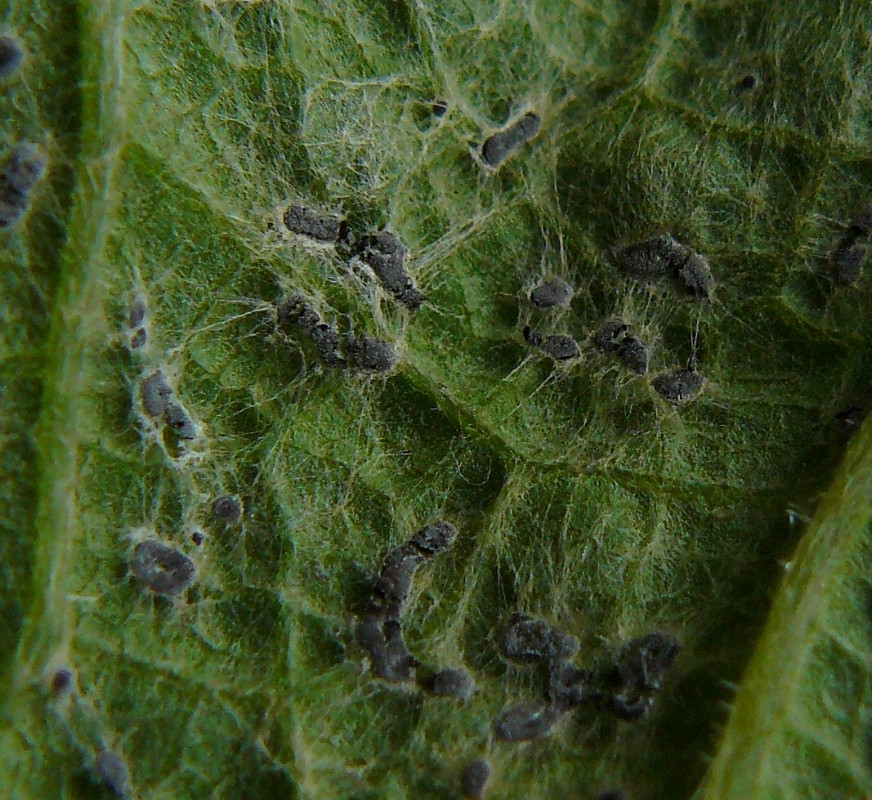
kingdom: Protozoa
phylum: Mycetozoa
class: Myxomycetes
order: Physarales
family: Didymiaceae
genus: Didymium
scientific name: Didymium tussilaginis
